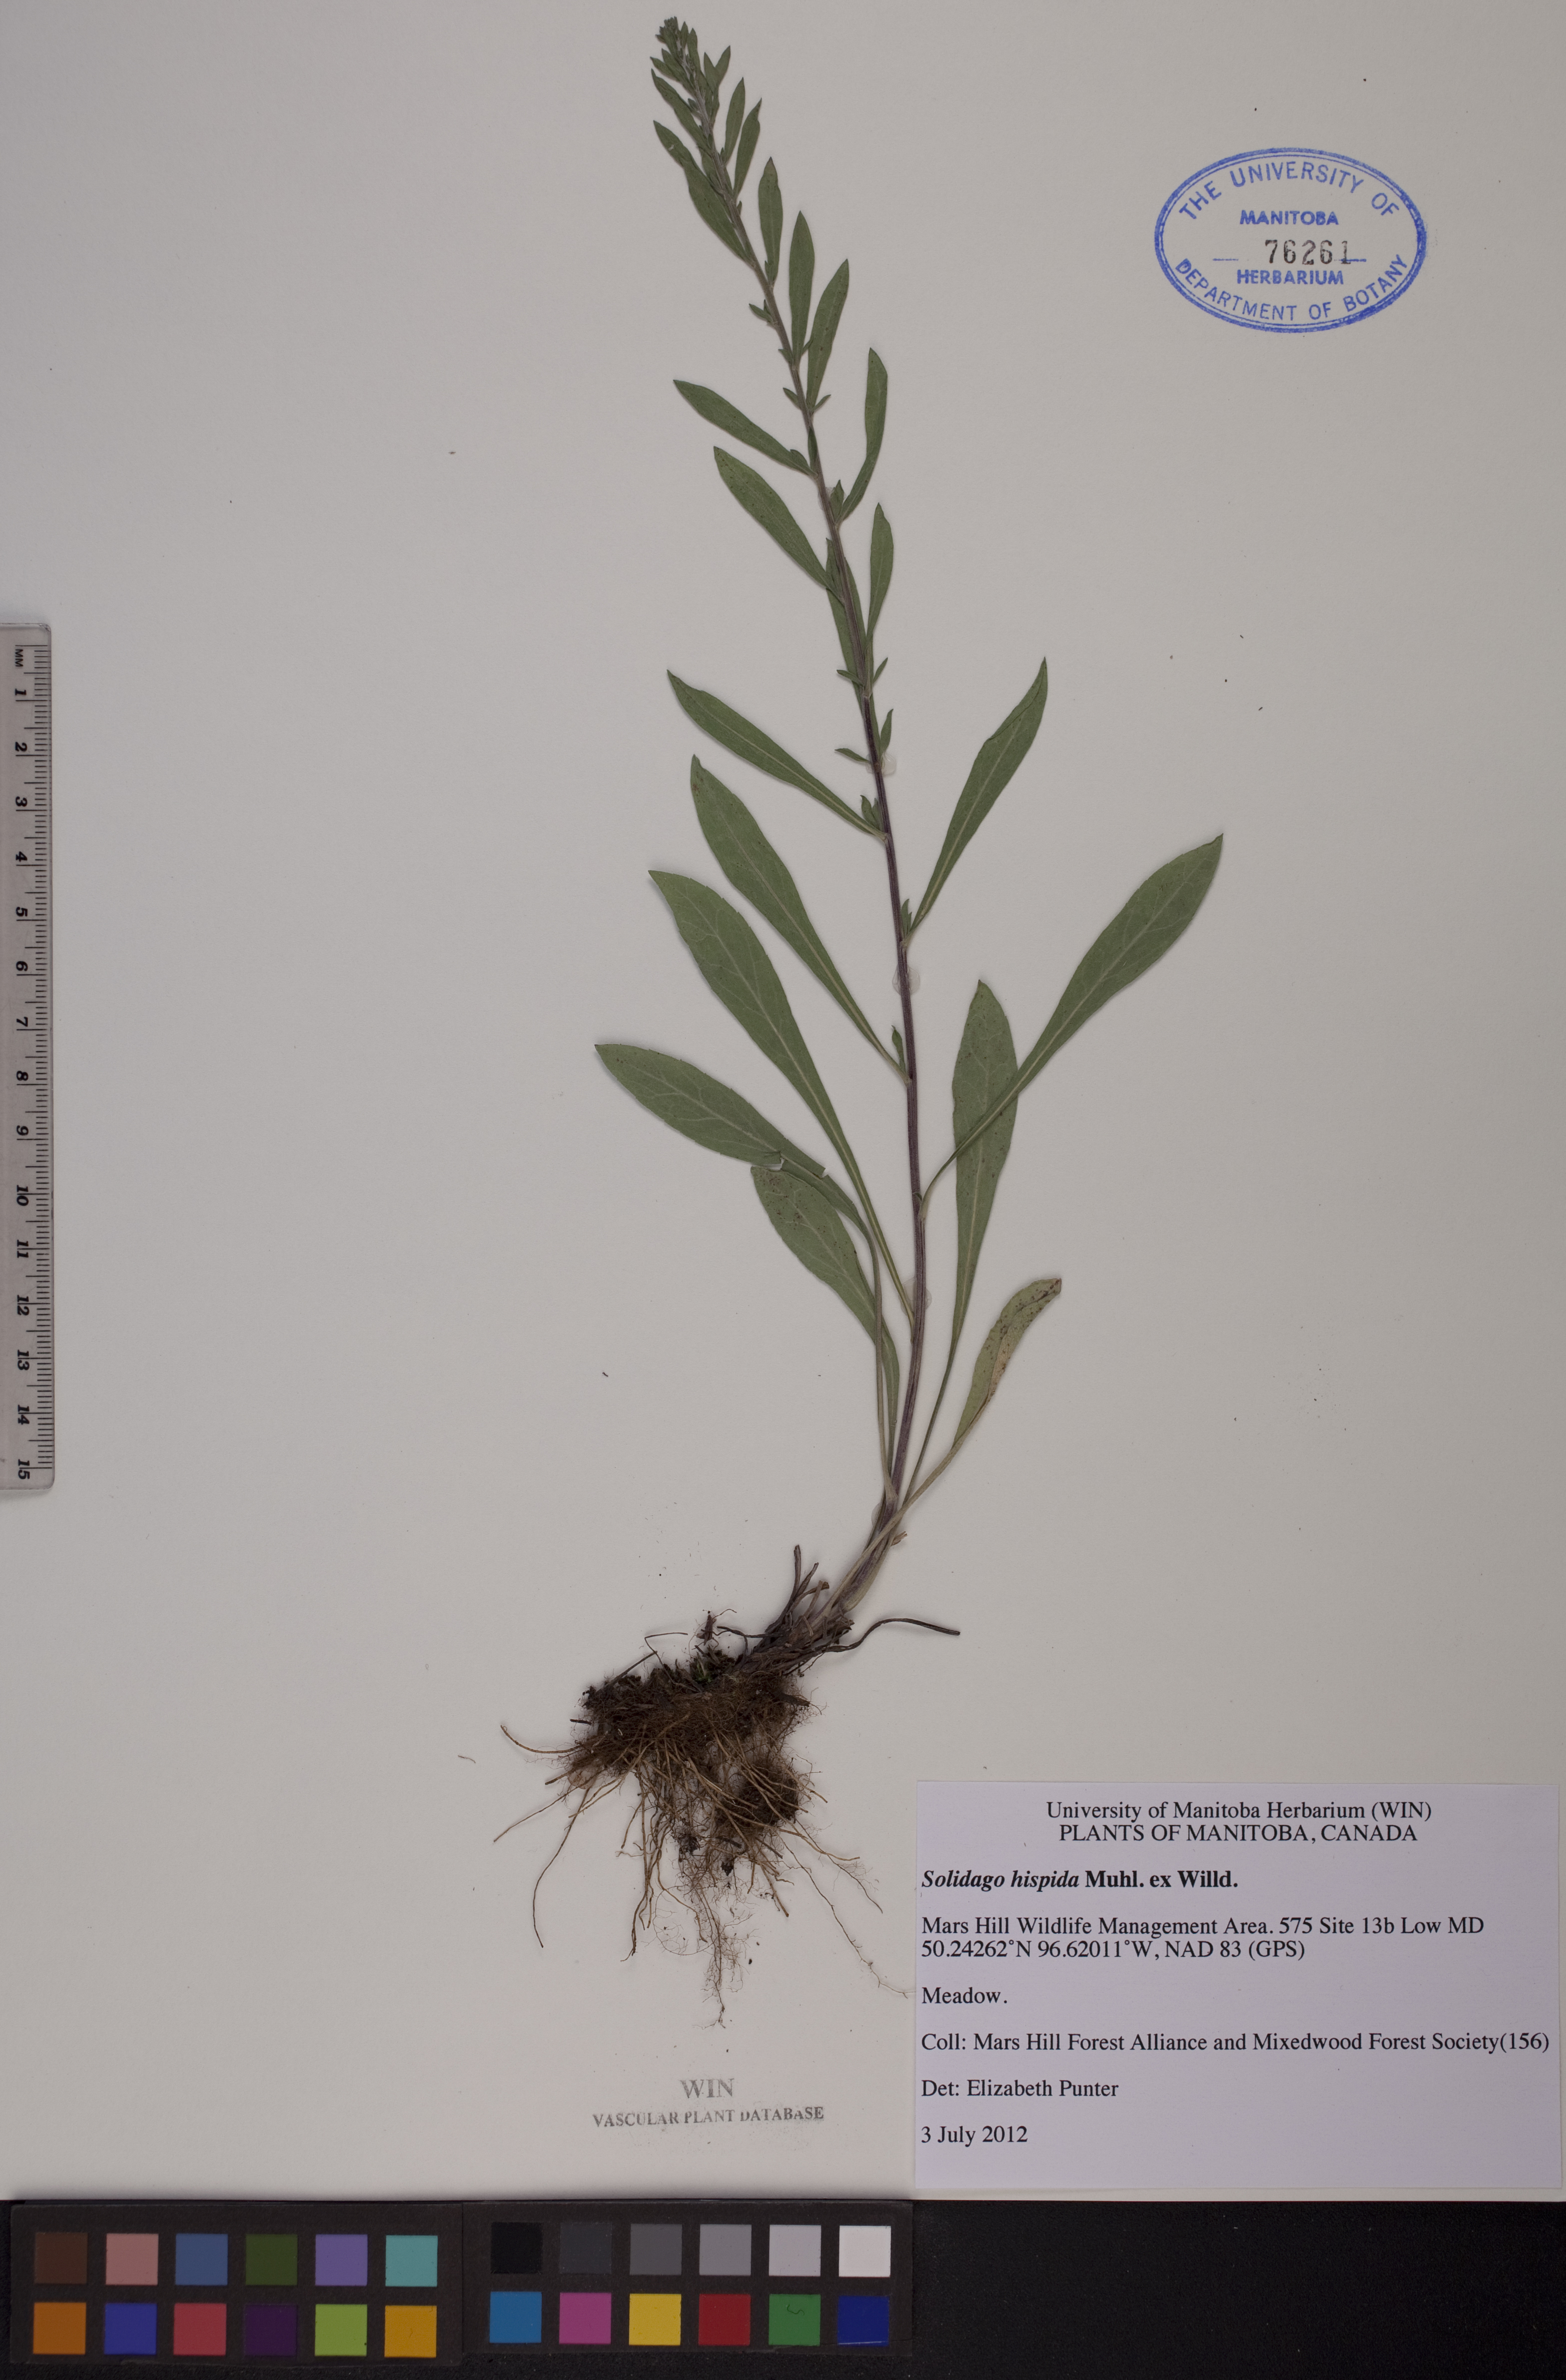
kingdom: Plantae
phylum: Tracheophyta
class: Magnoliopsida
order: Asterales
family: Asteraceae
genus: Solidago
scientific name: Solidago hispida
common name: Hairy goldenrod
